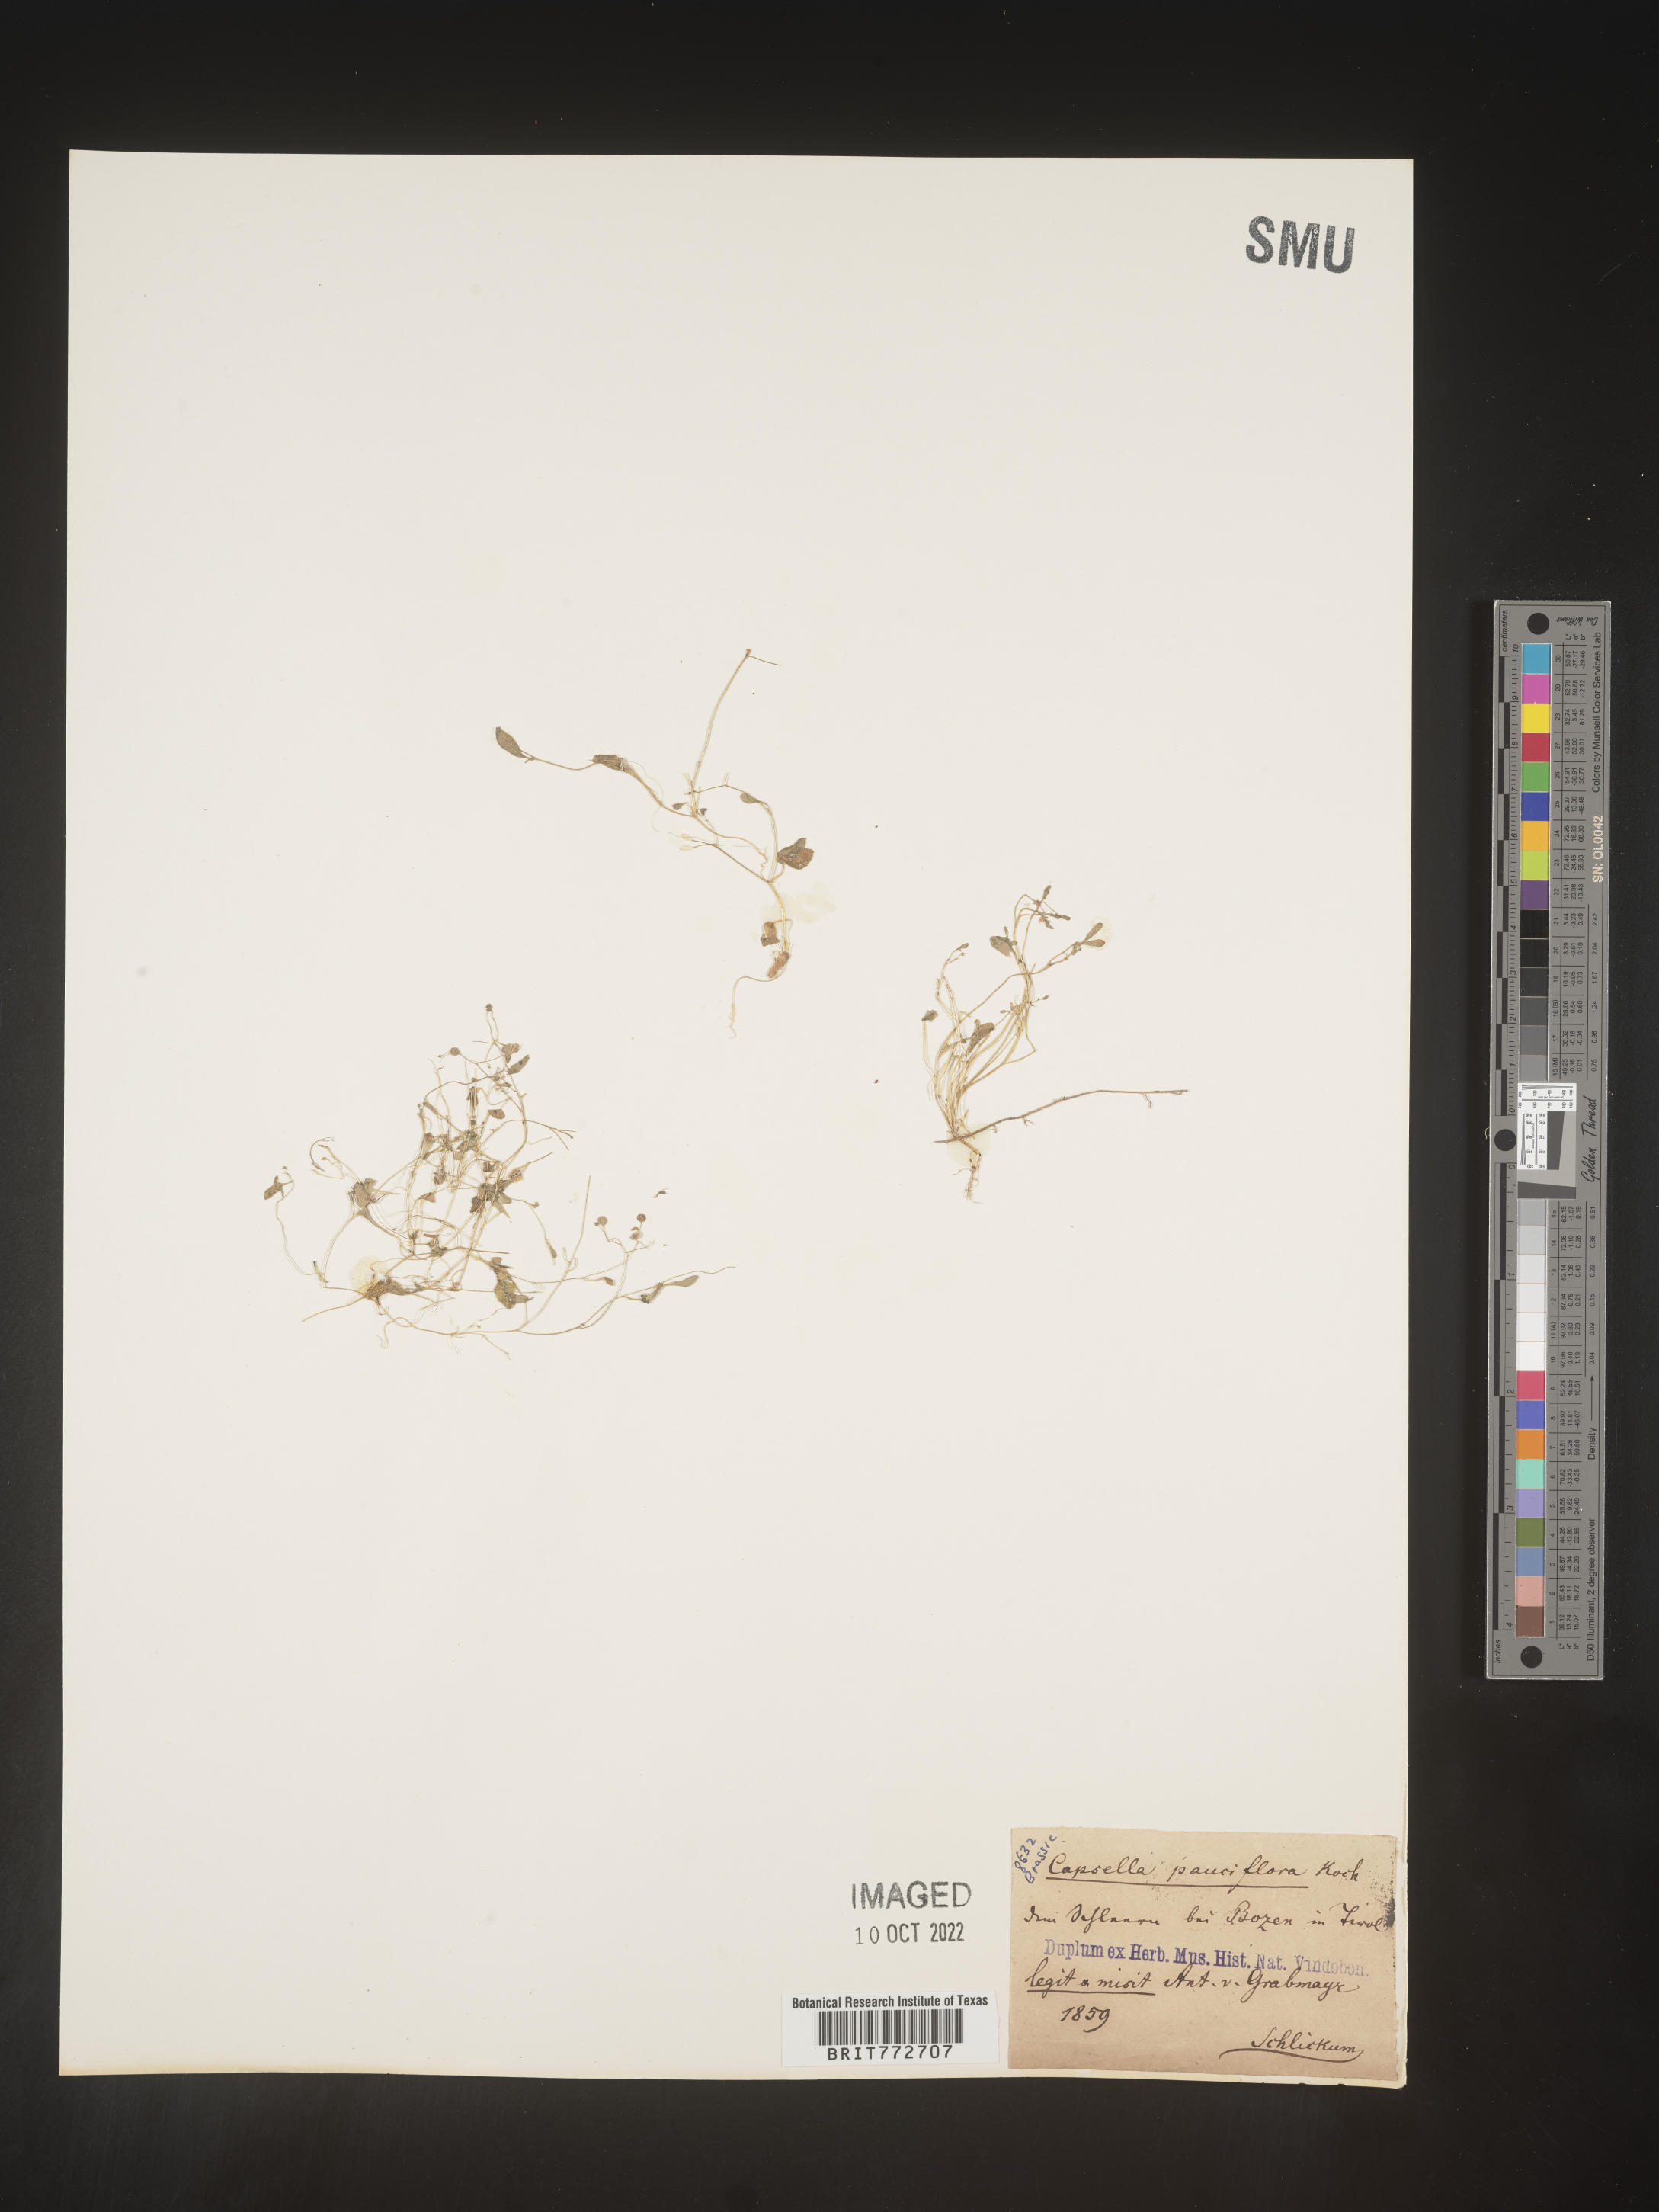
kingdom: Plantae
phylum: Tracheophyta
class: Magnoliopsida
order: Brassicales
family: Brassicaceae
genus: Capsella
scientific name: Capsella
